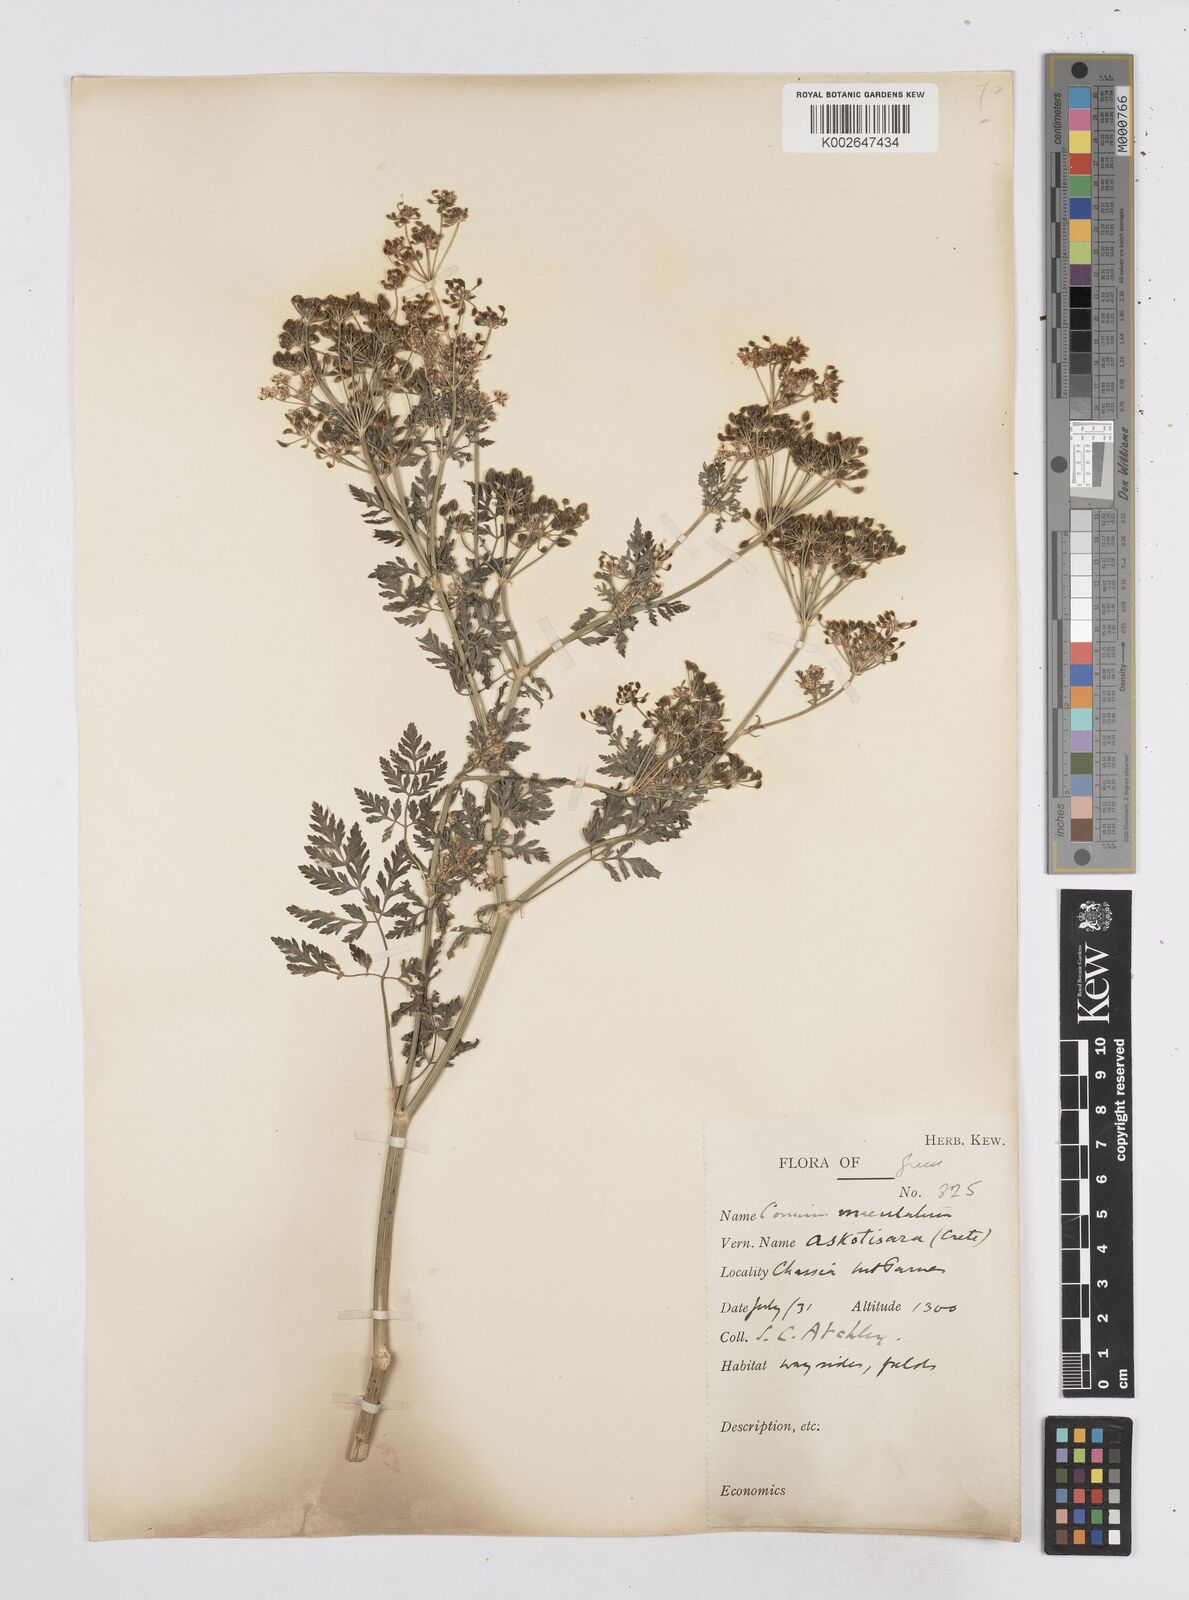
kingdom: Plantae
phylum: Tracheophyta
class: Magnoliopsida
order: Apiales
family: Apiaceae
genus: Conium
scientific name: Conium maculatum
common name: Hemlock
